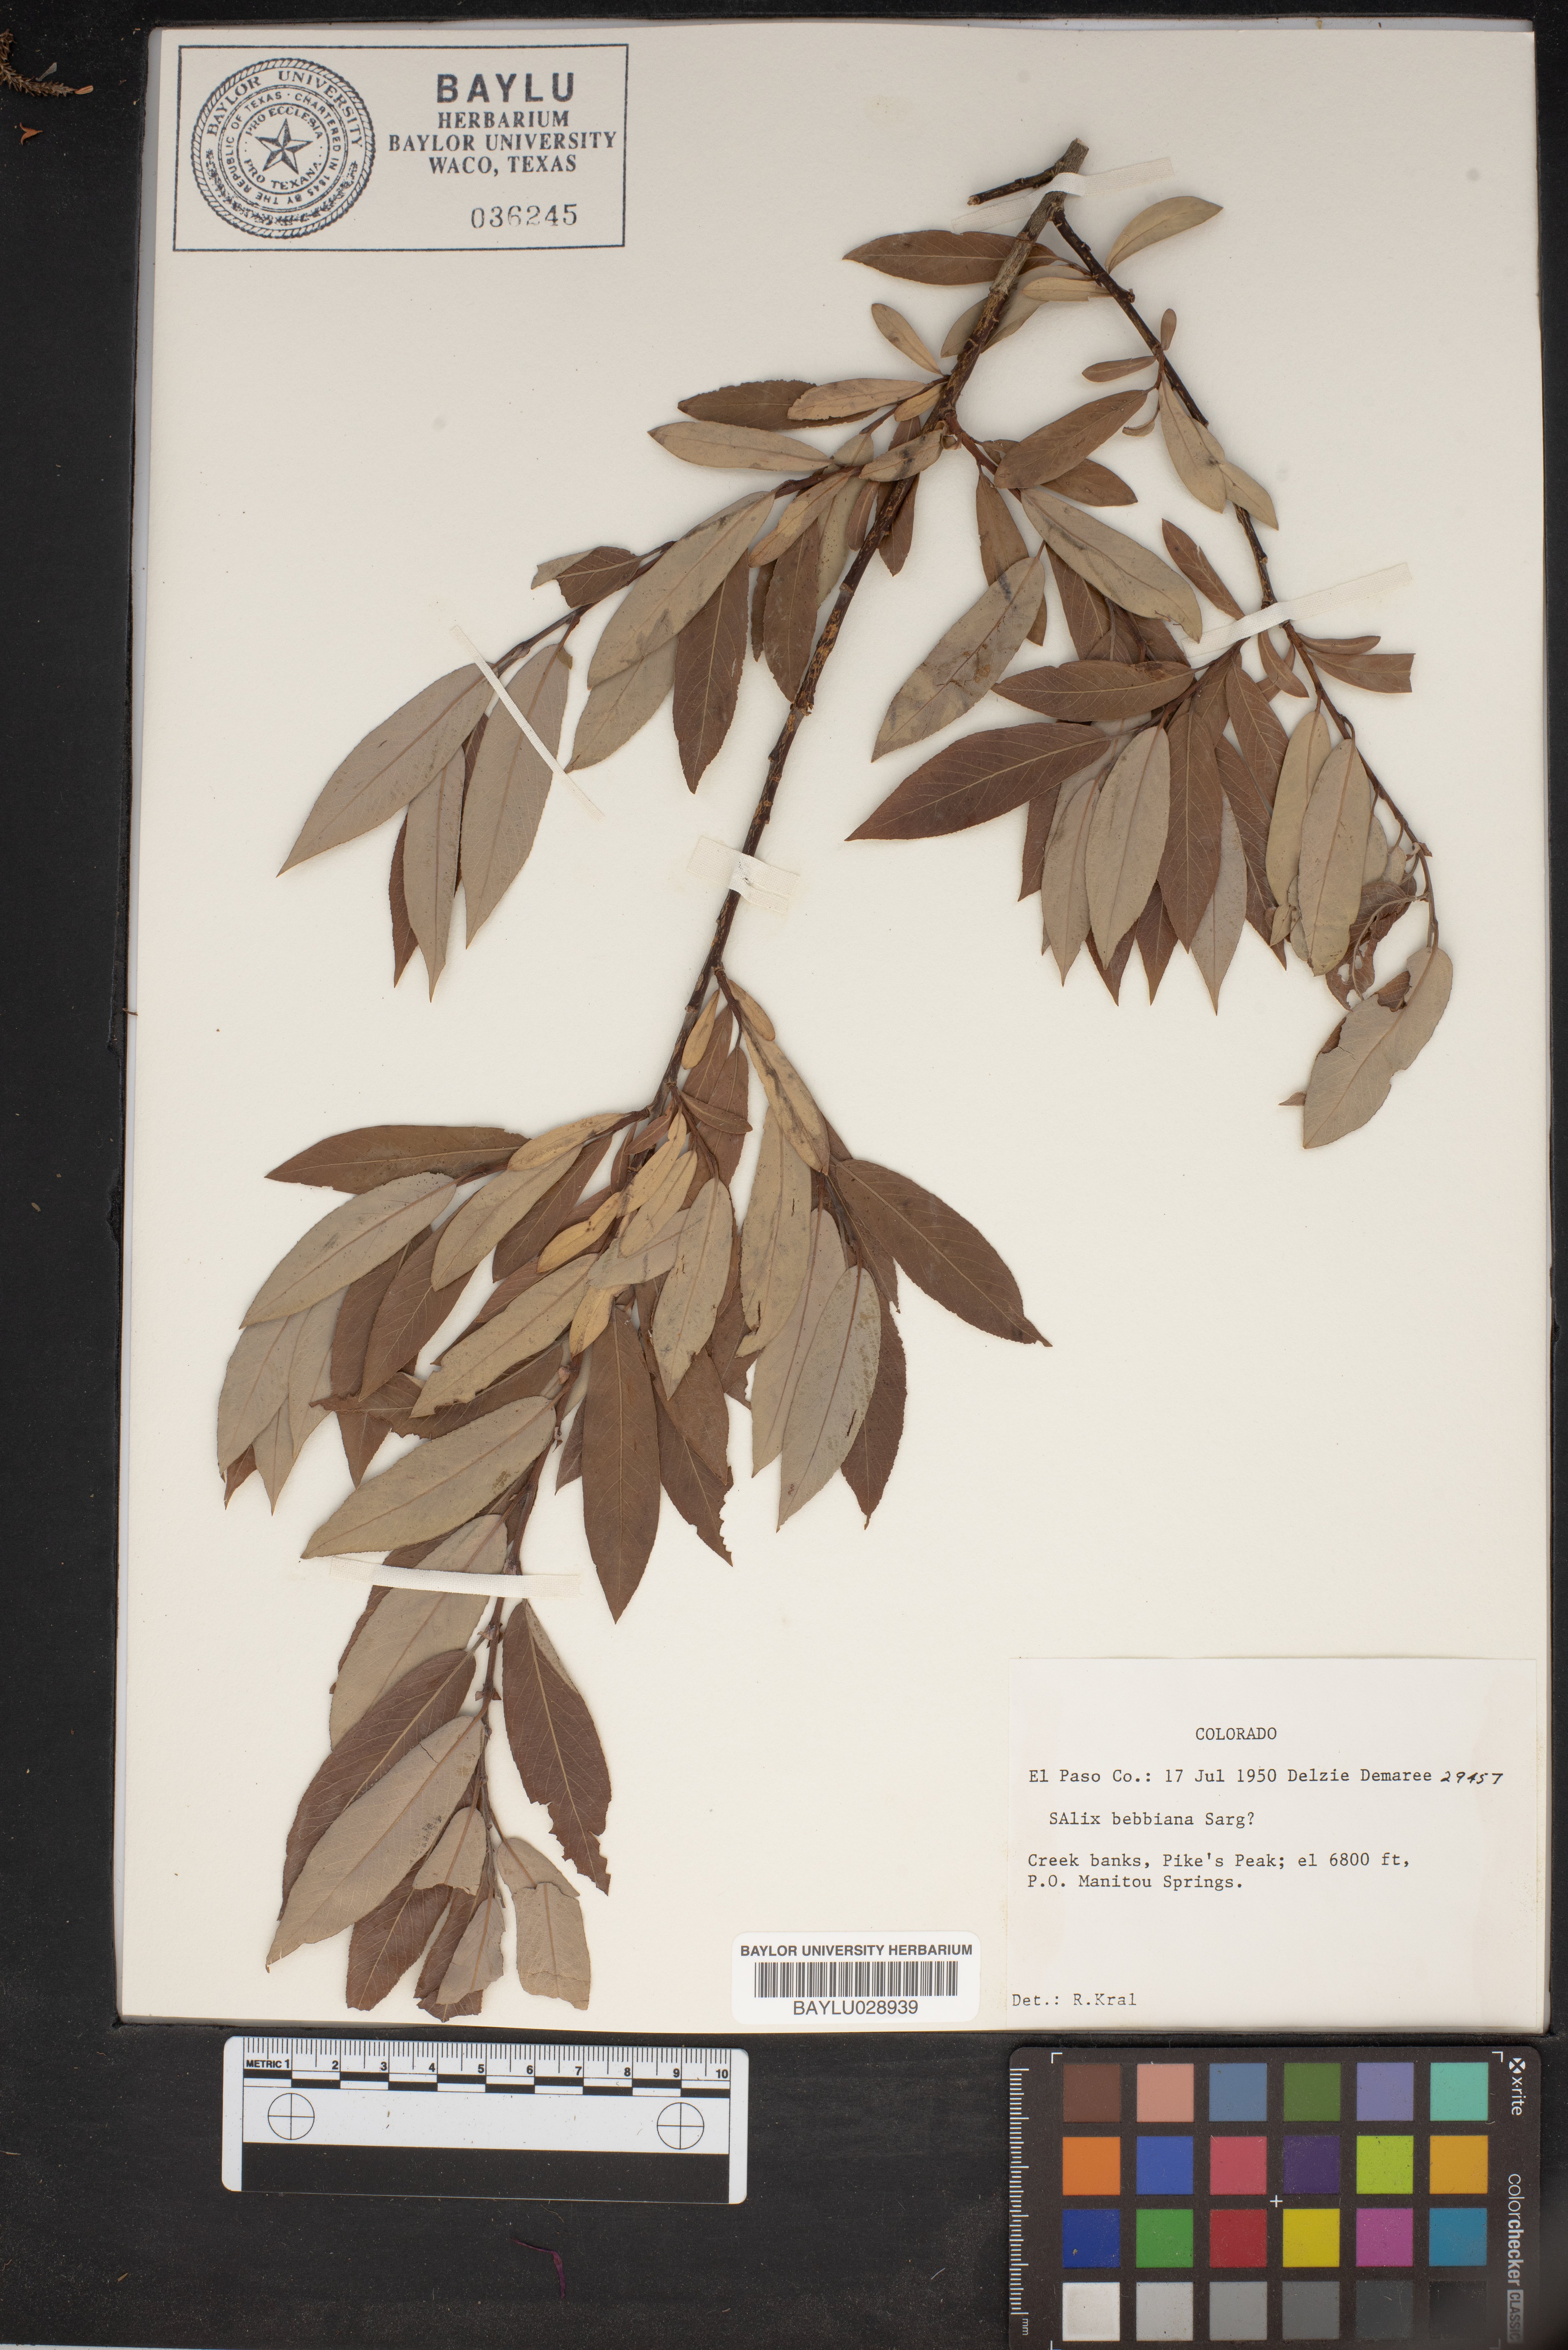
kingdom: Plantae
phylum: Tracheophyta
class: Magnoliopsida
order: Malpighiales
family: Salicaceae
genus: Salix
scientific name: Salix bebbiana
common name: Bebb's willow
